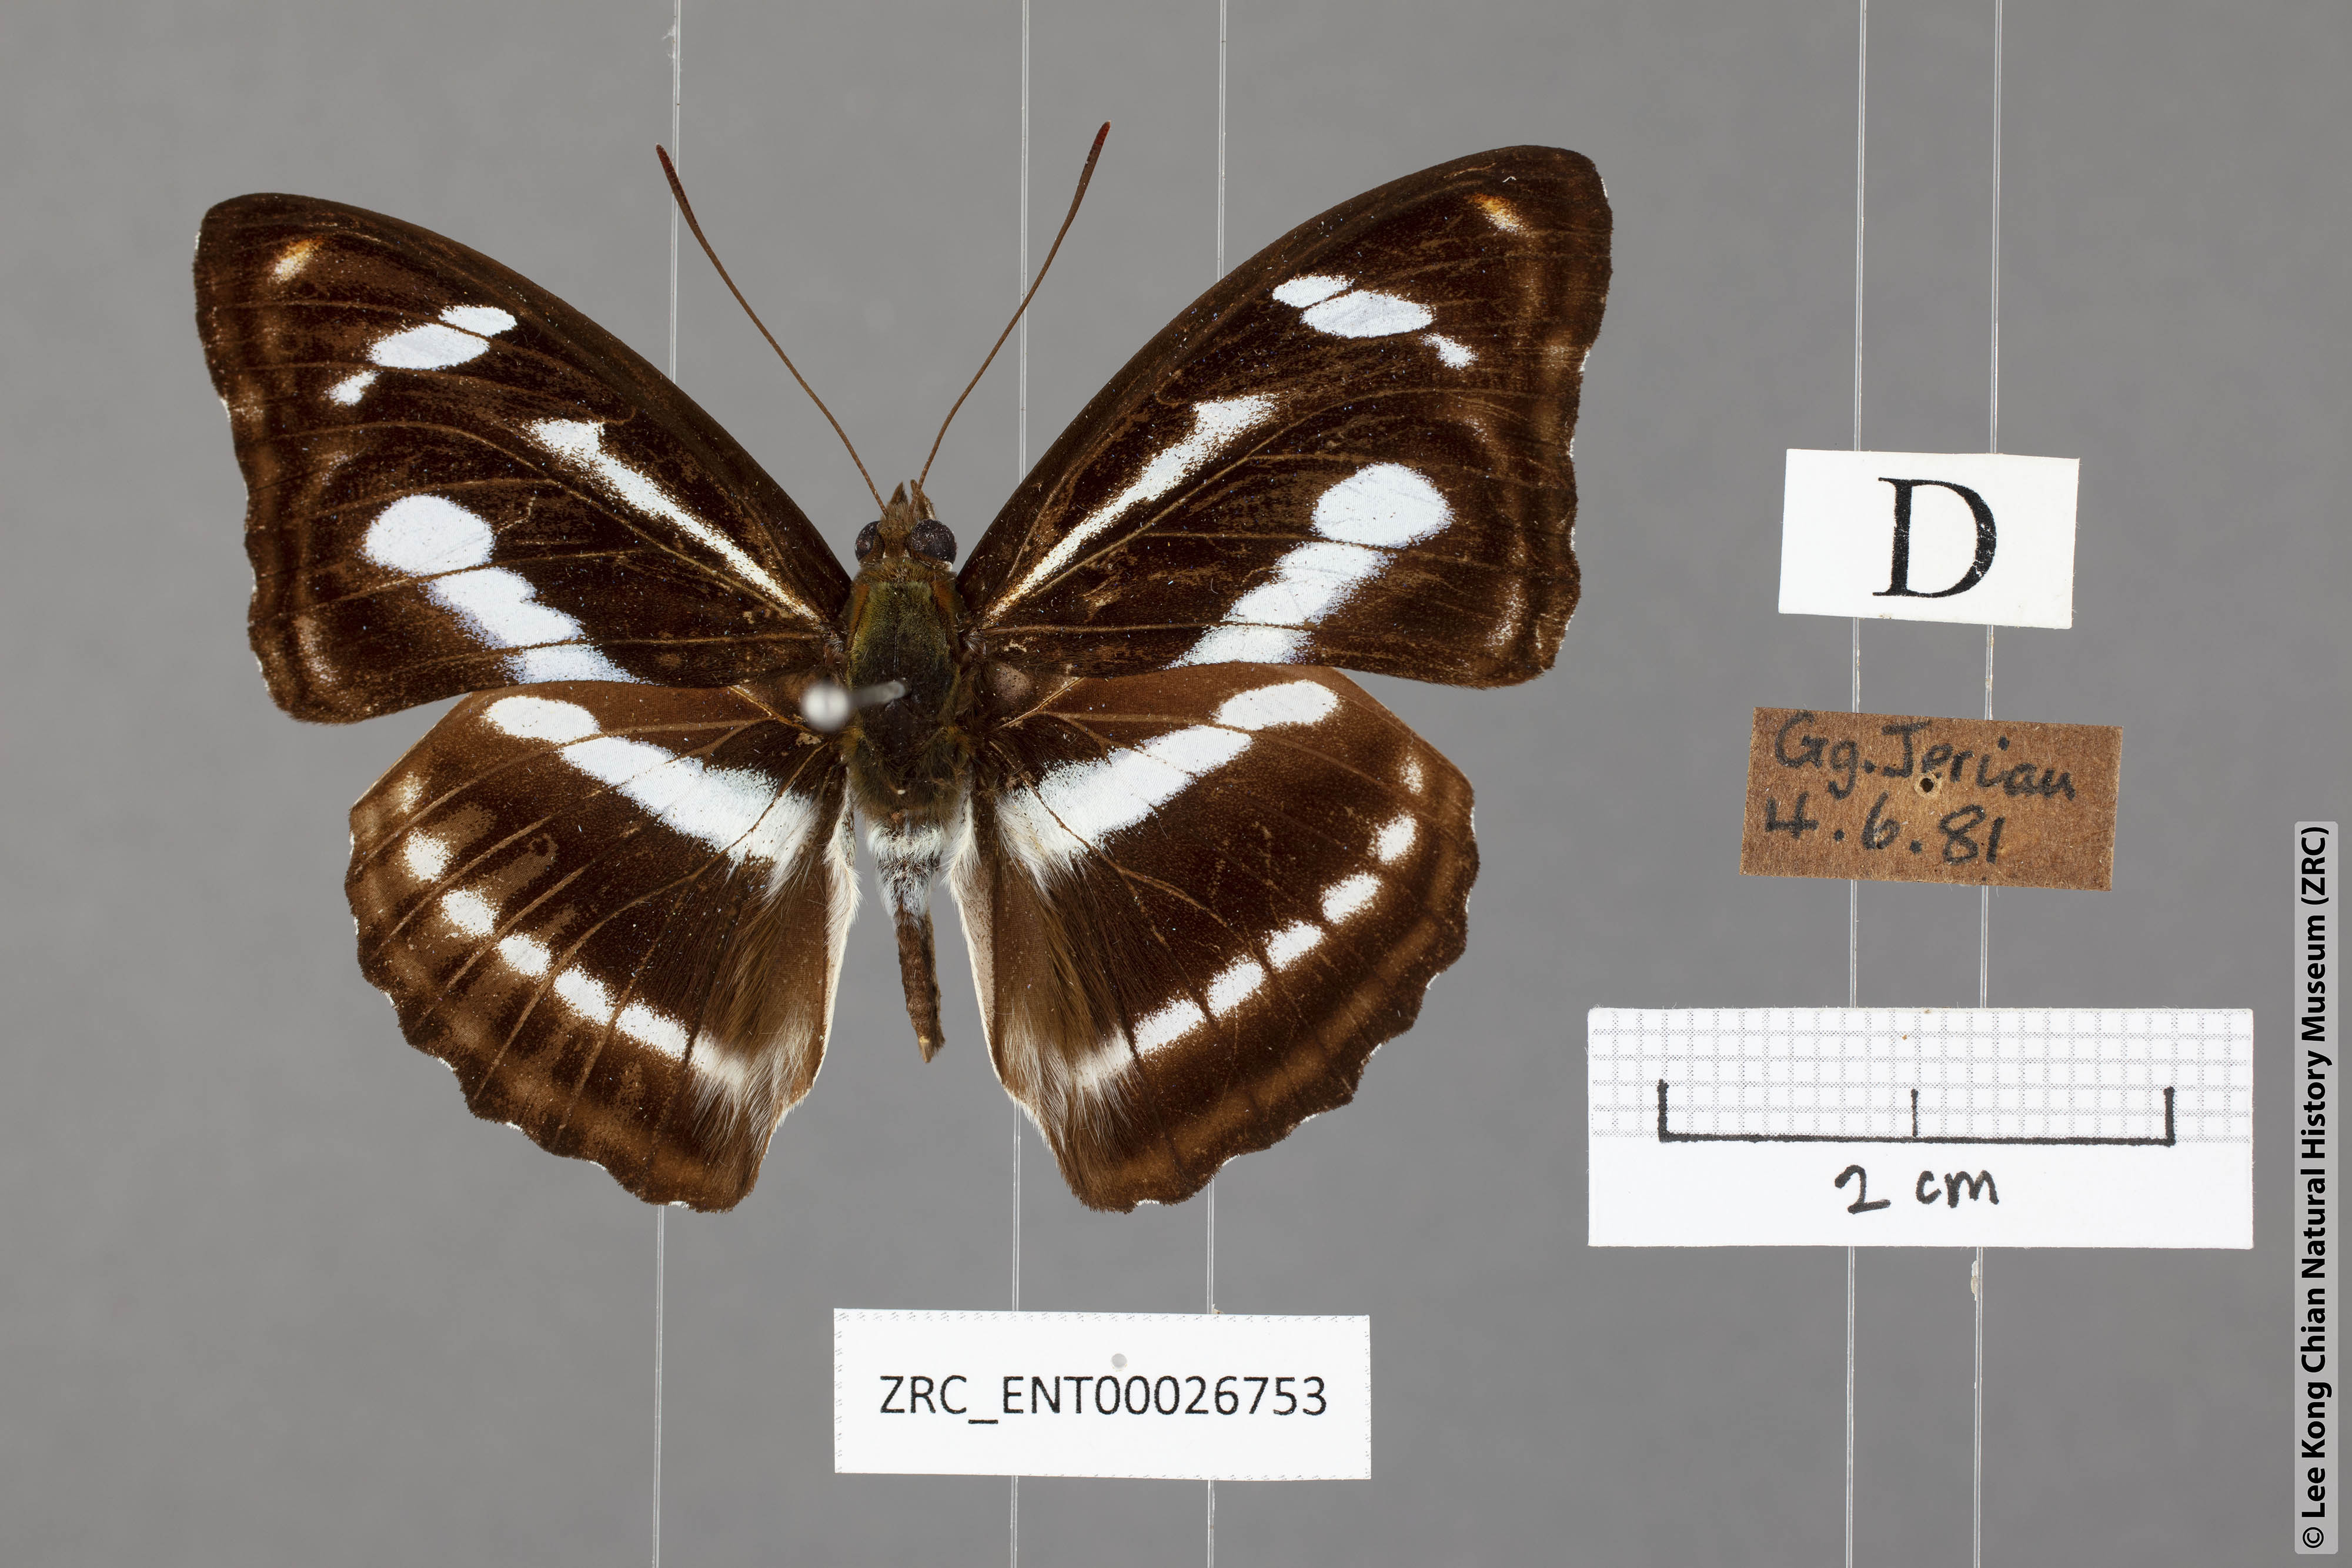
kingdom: Animalia
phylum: Arthropoda
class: Insecta
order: Lepidoptera
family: Nymphalidae
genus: Pantoporia
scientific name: Pantoporia cama
